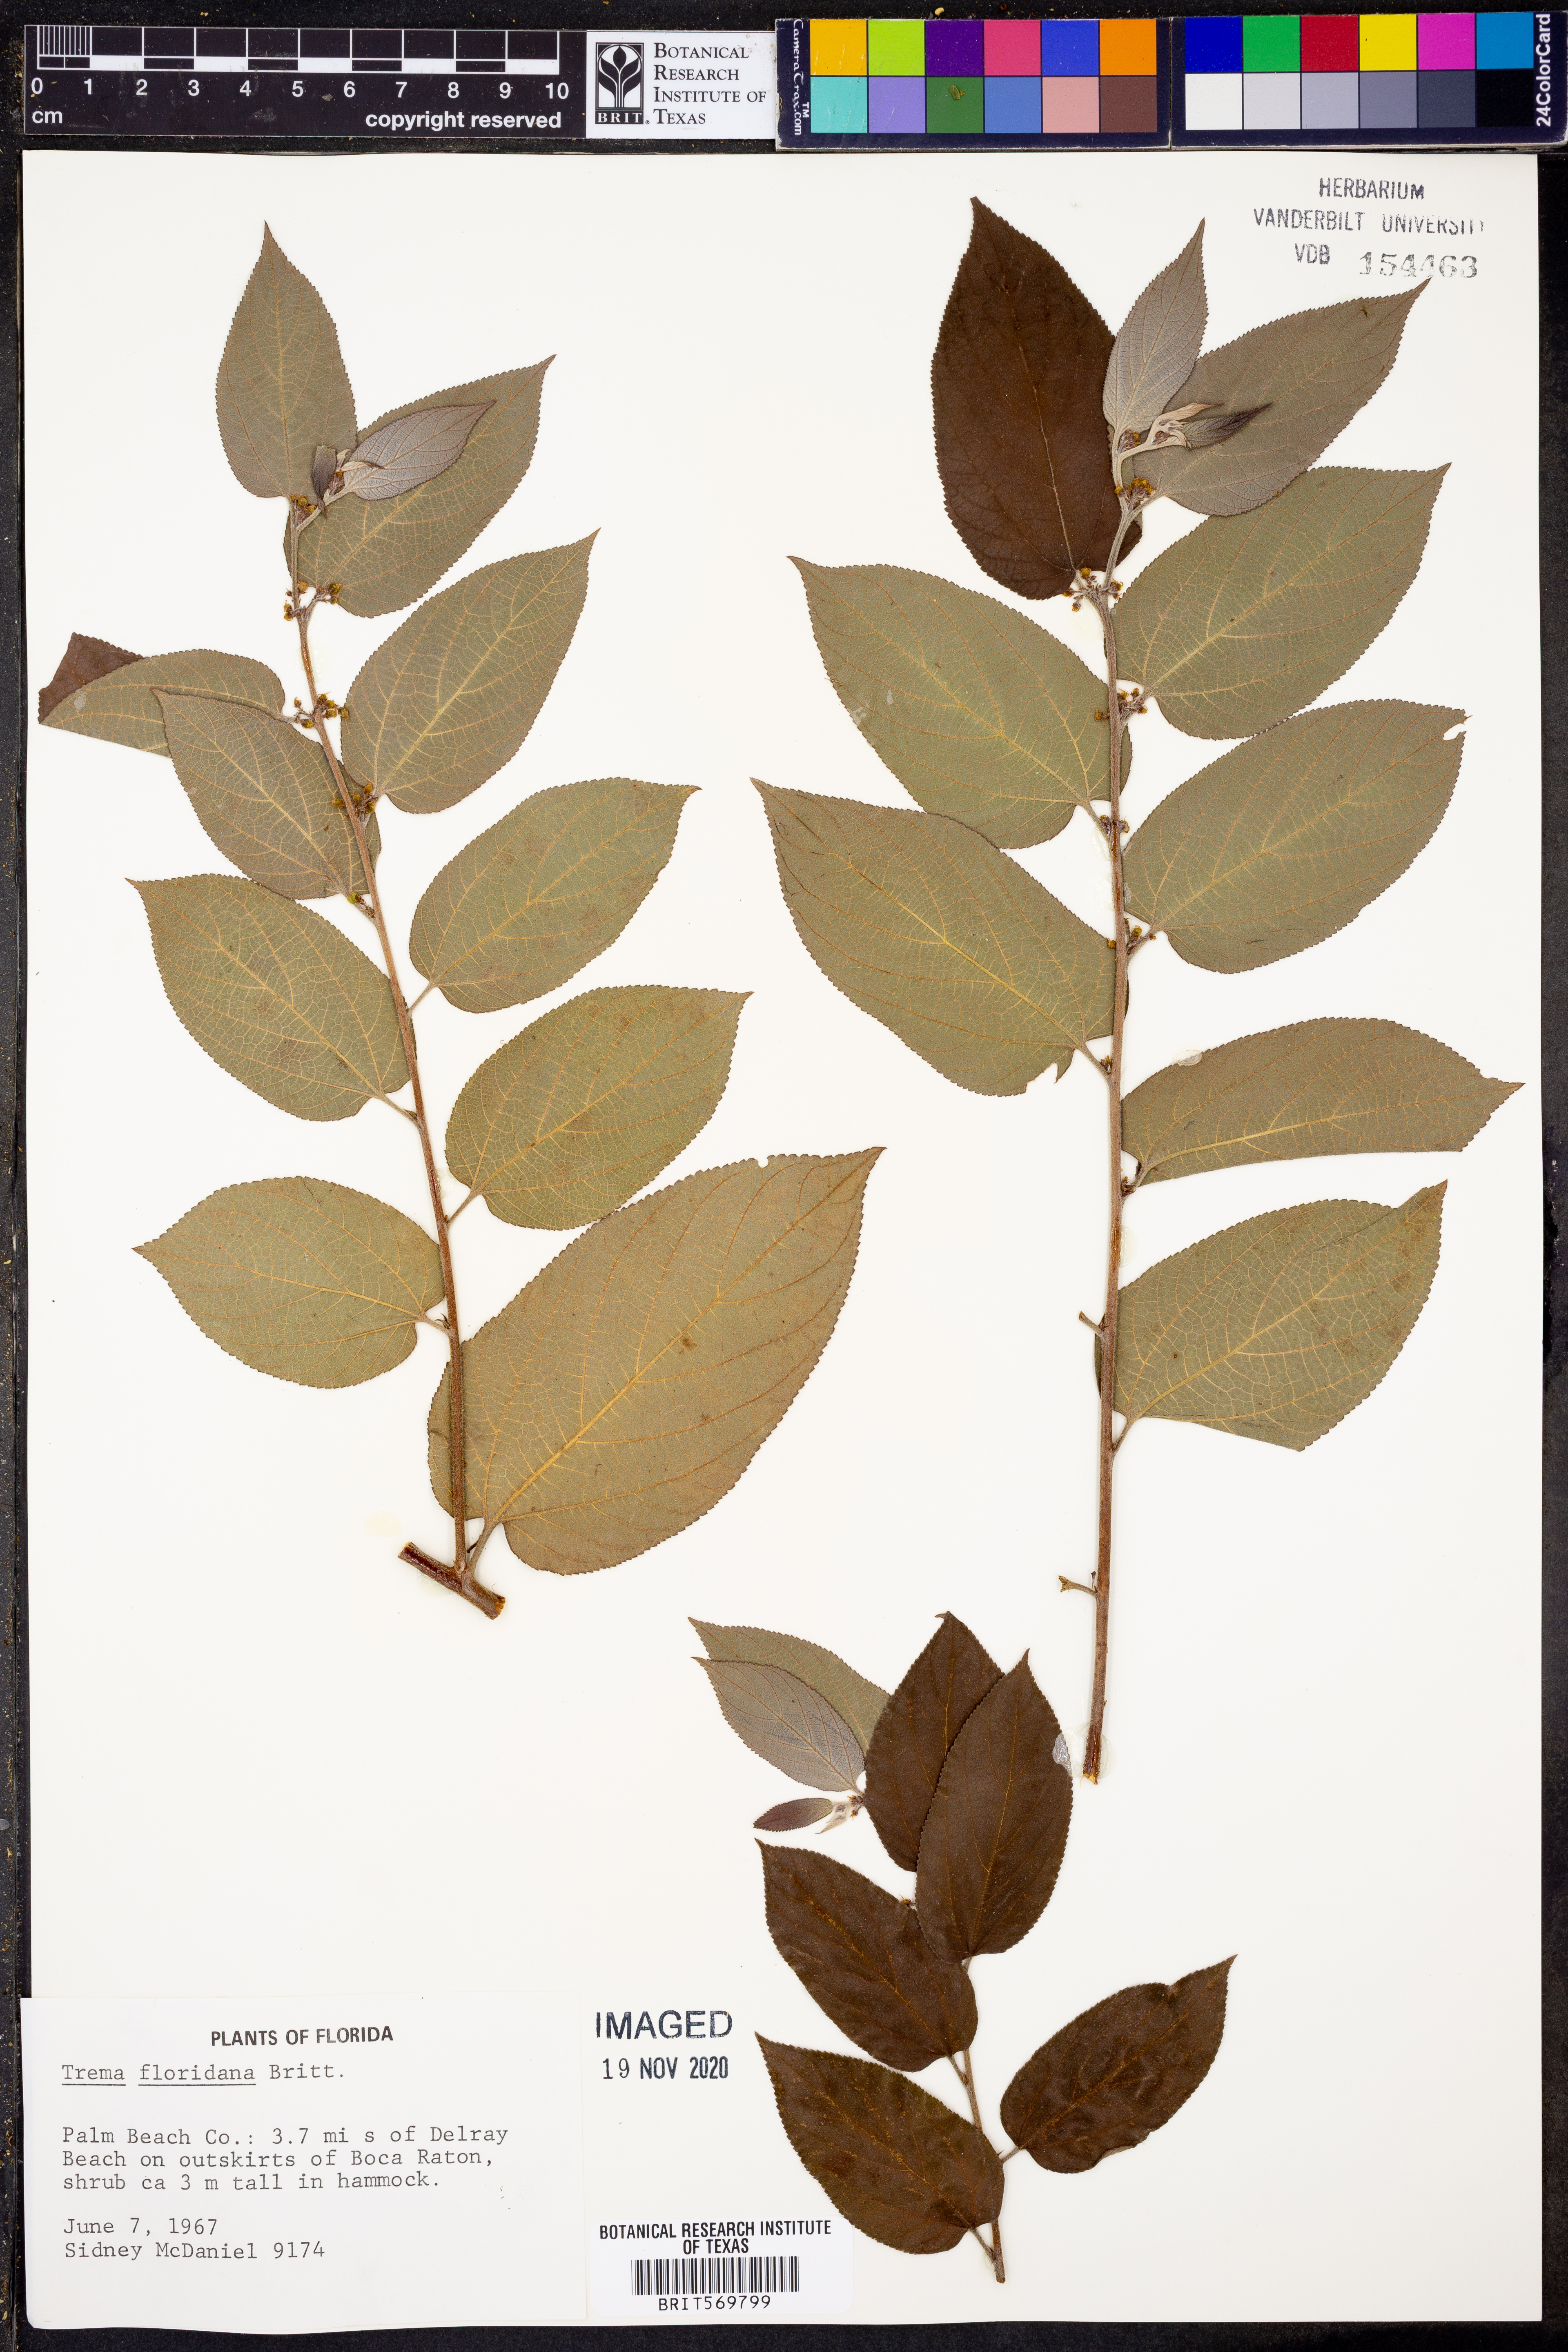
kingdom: Plantae
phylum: Tracheophyta
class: Magnoliopsida
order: Rosales
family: Cannabaceae
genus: Trema
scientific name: Trema micranthum
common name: Jamaican nettletree
